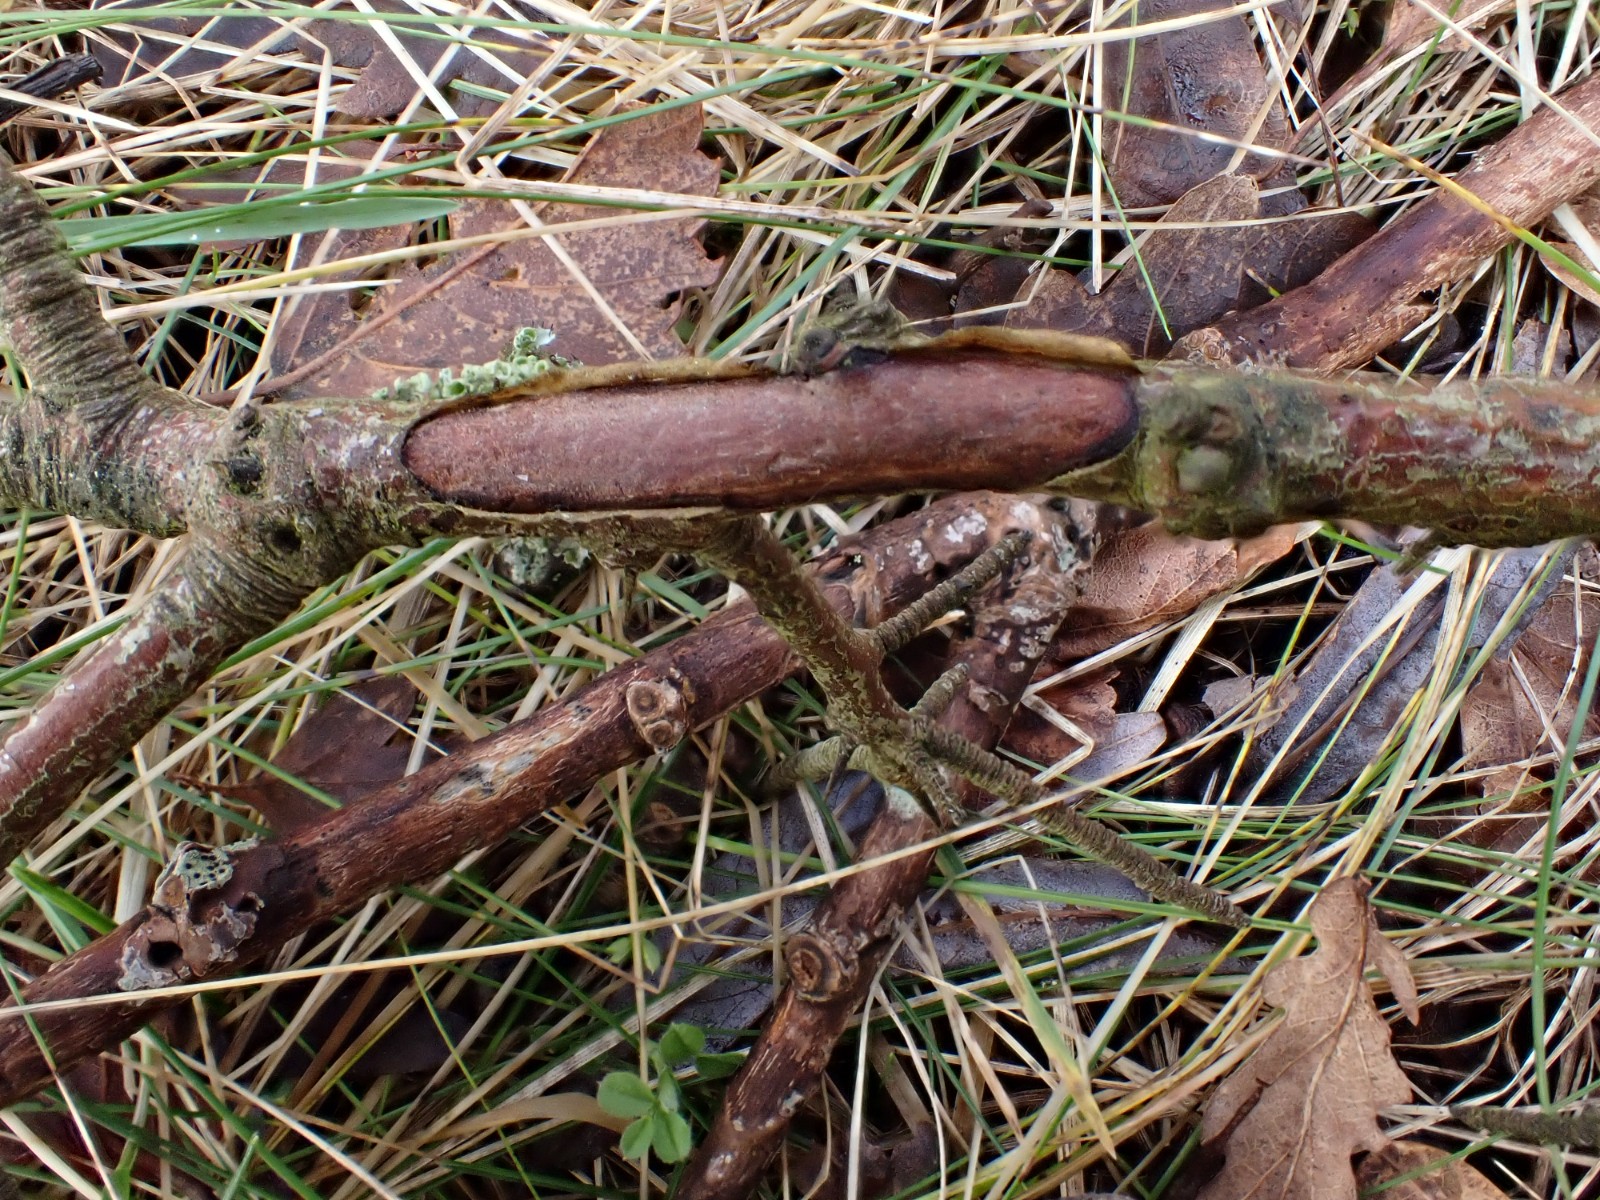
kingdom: Fungi
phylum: Basidiomycota
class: Agaricomycetes
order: Corticiales
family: Vuilleminiaceae
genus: Vuilleminia
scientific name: Vuilleminia cystidiata
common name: tjørne-barksprænger
